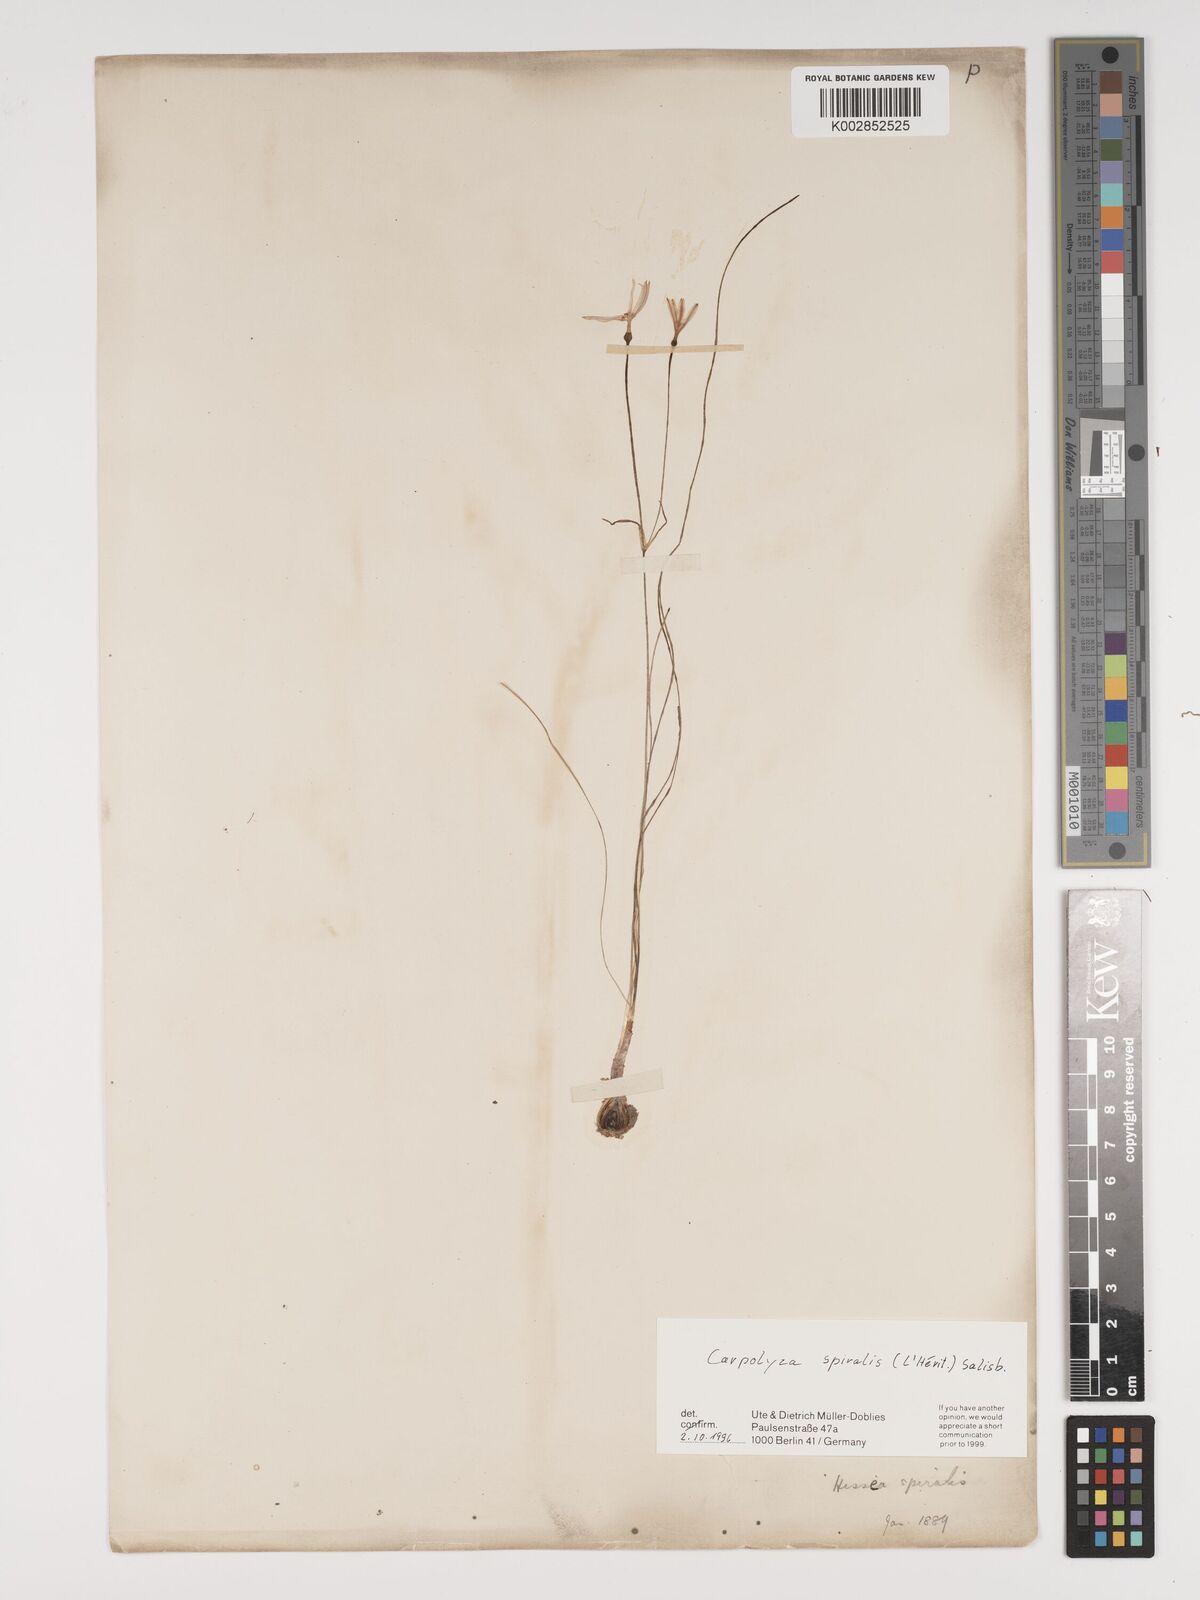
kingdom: Plantae
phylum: Tracheophyta
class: Liliopsida
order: Asparagales
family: Amaryllidaceae
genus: Strumaria
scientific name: Strumaria spiralis
